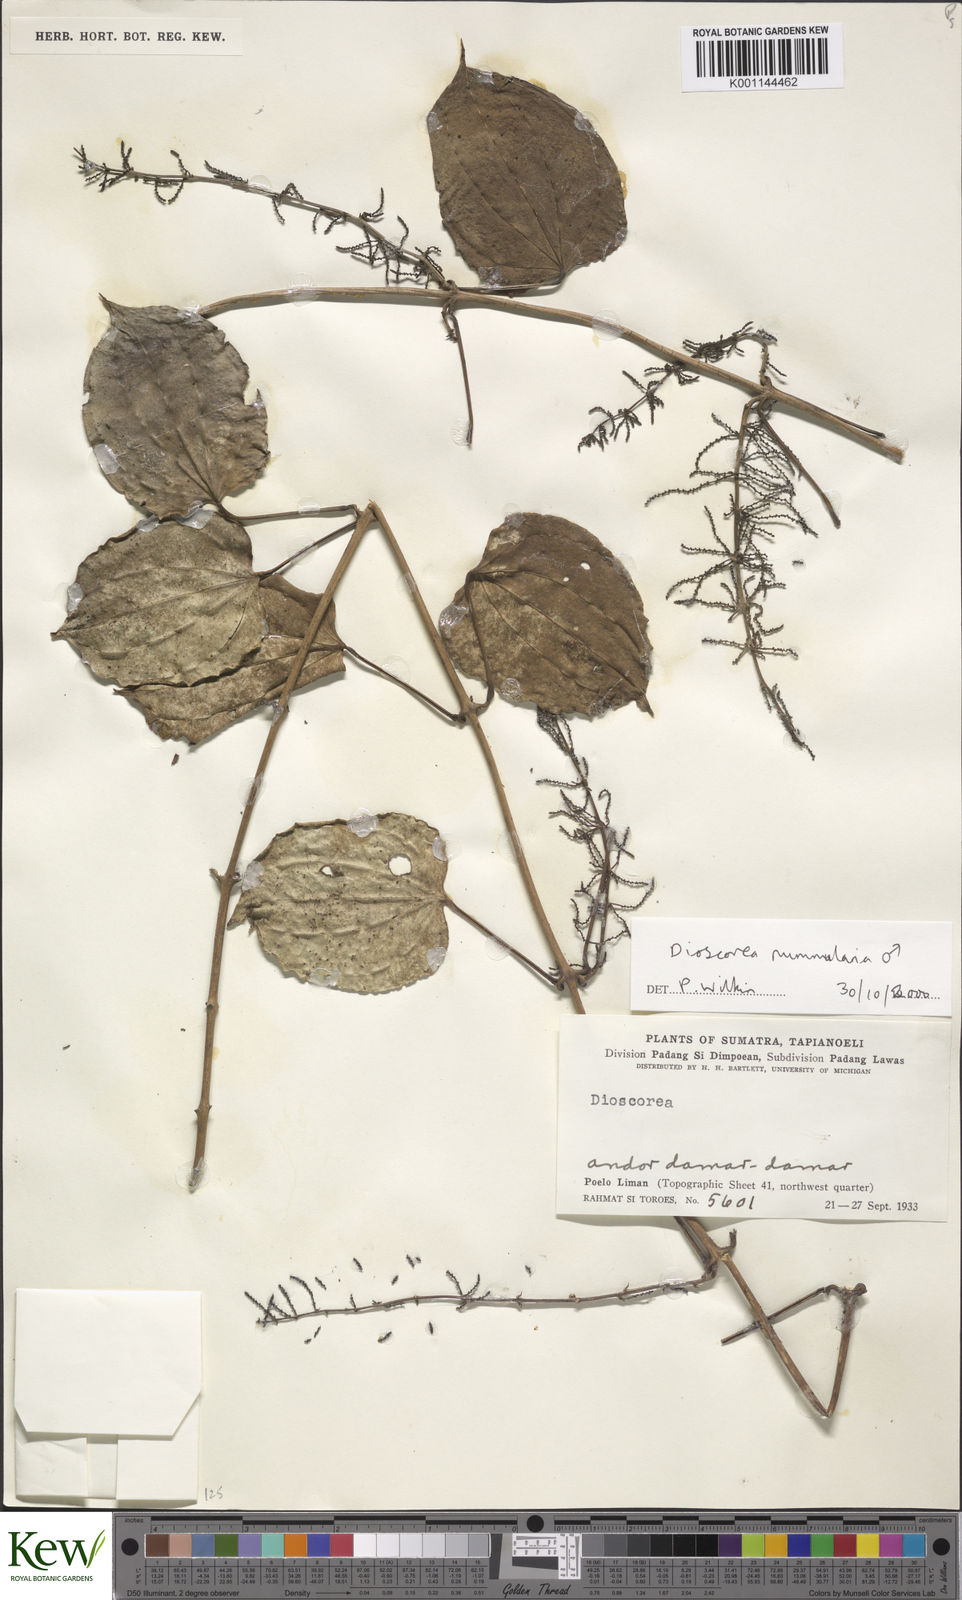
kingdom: Plantae
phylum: Tracheophyta
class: Liliopsida
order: Dioscoreales
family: Dioscoreaceae
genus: Dioscorea
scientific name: Dioscorea nummularia
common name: Pacific yam
